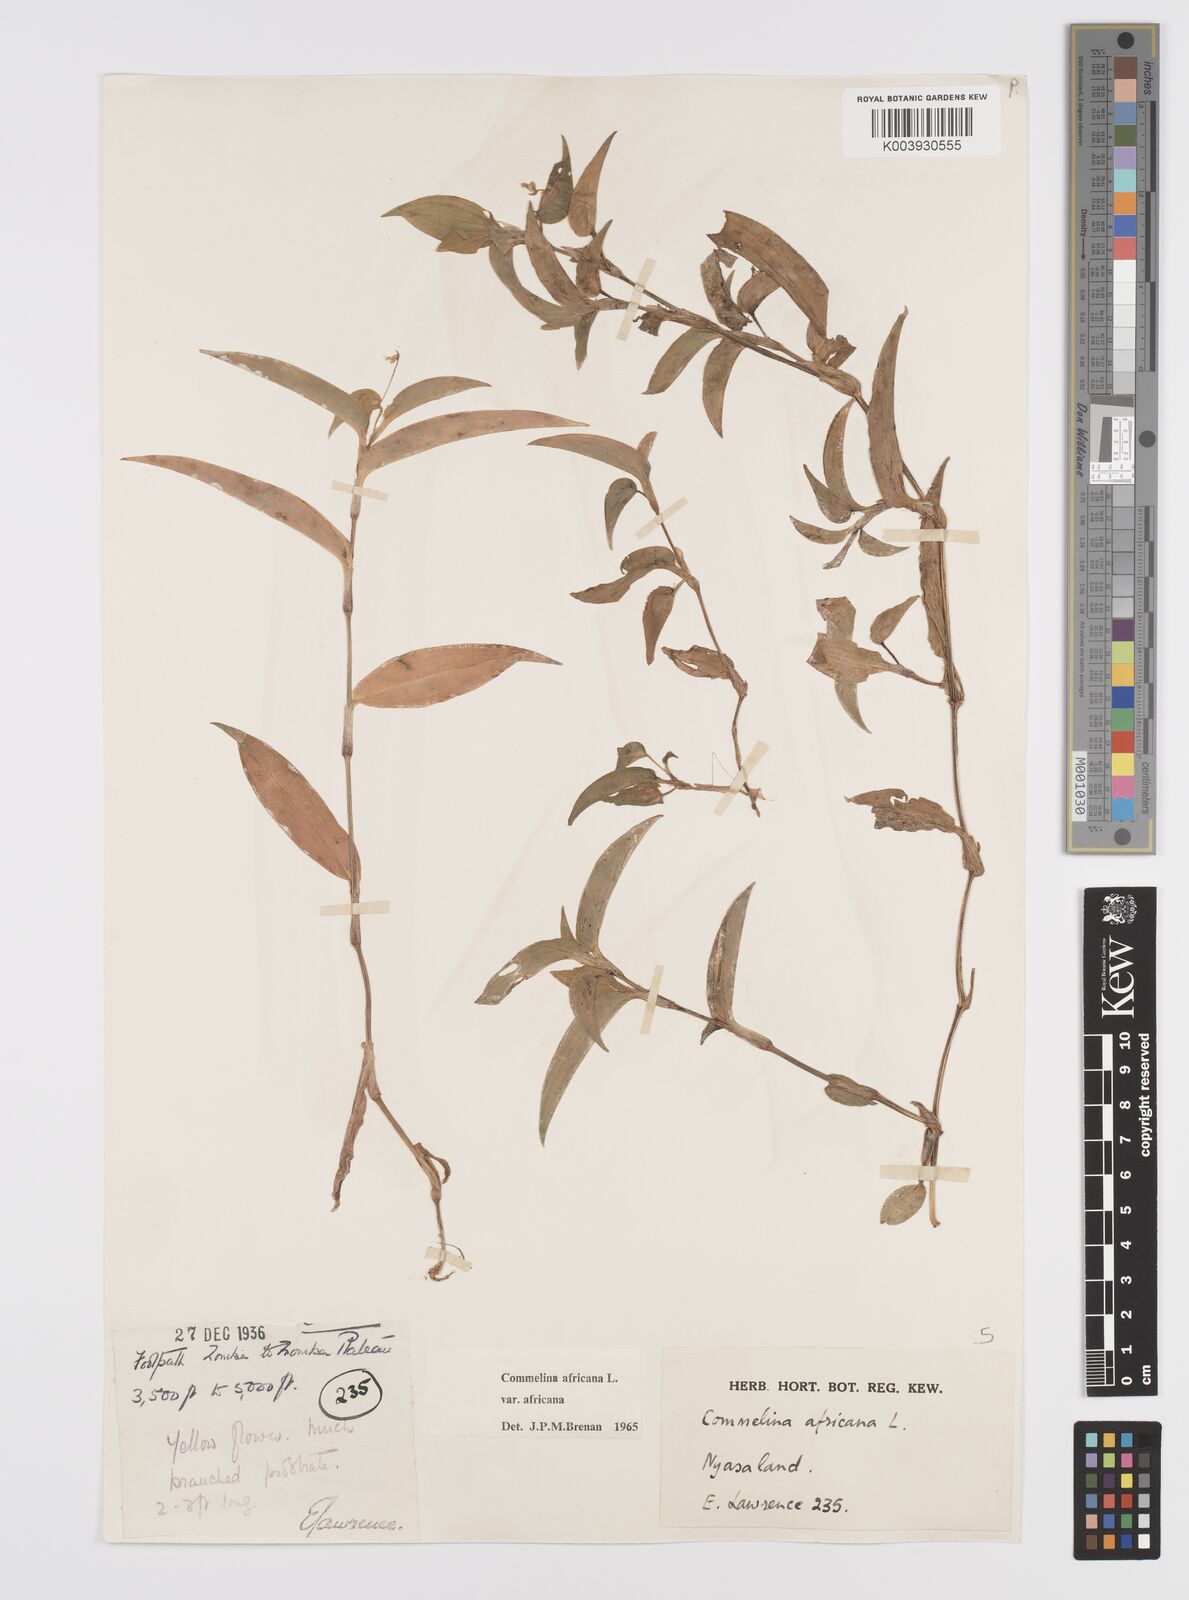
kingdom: Plantae
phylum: Tracheophyta
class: Liliopsida
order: Commelinales
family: Commelinaceae
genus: Commelina
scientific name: Commelina africana
